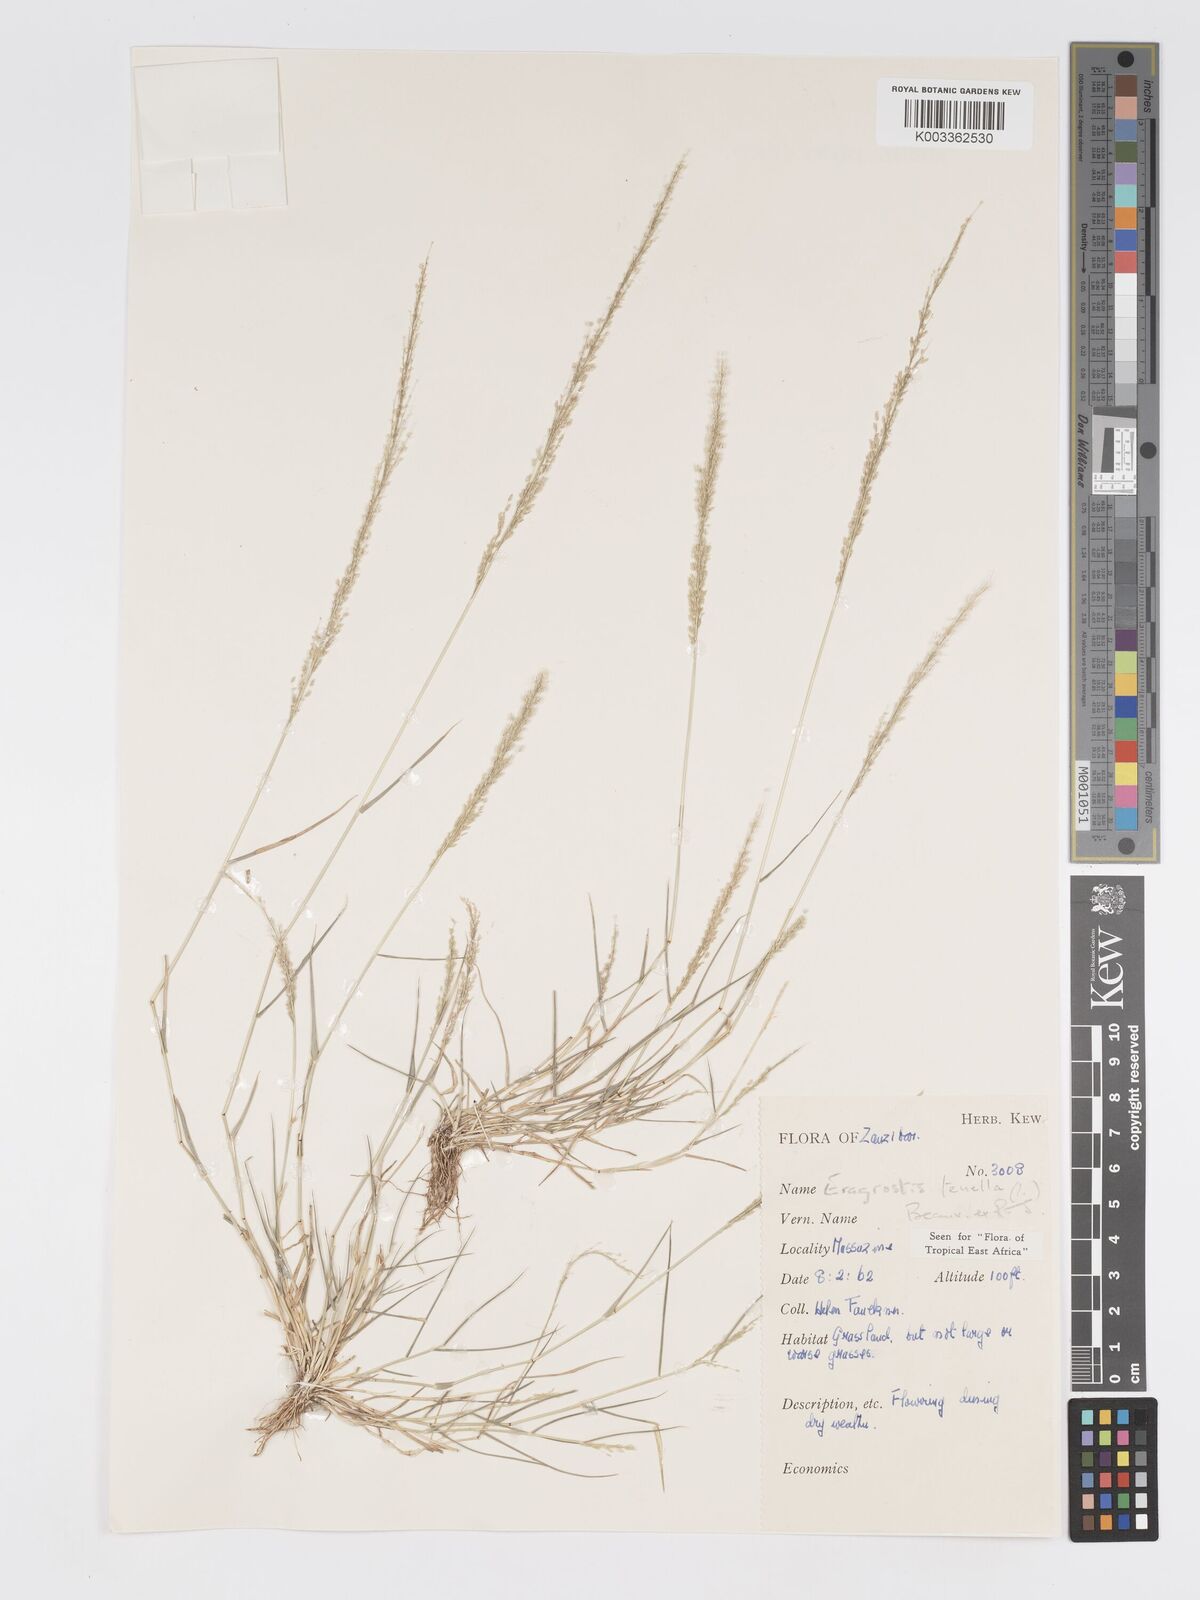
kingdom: Plantae
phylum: Tracheophyta
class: Liliopsida
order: Poales
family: Poaceae
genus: Eragrostis
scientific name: Eragrostis tenella
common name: Japanese lovegrass
